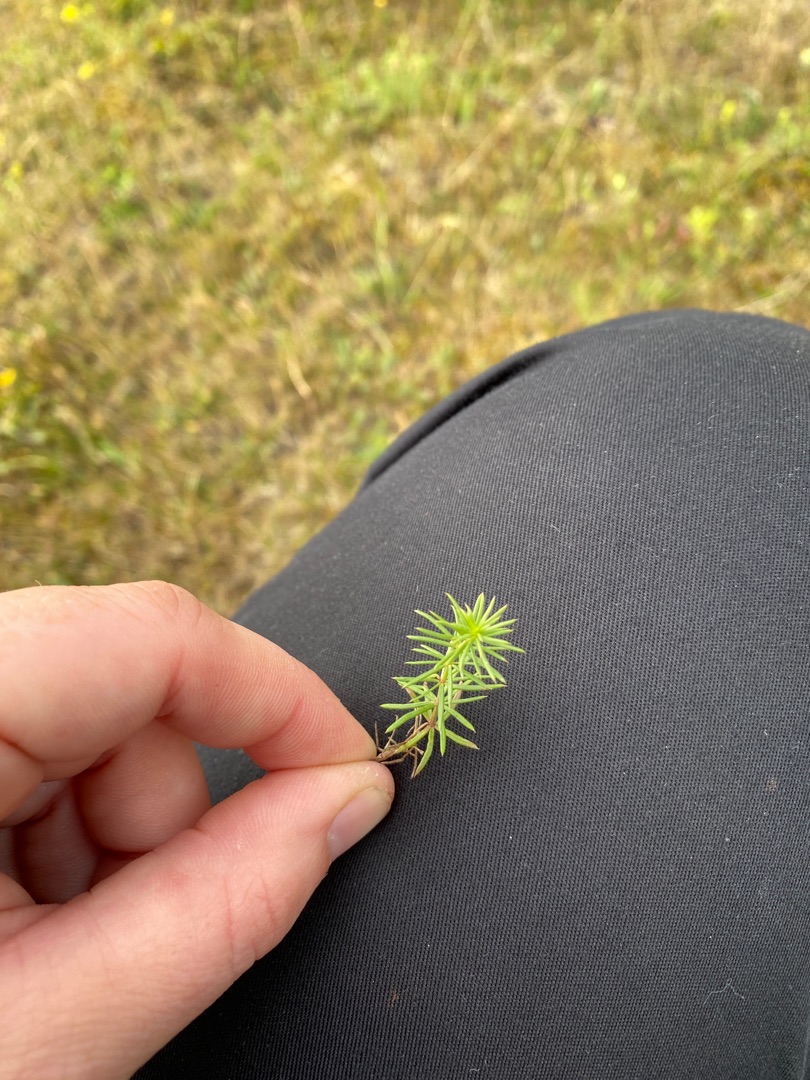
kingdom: Plantae
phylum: Tracheophyta
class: Magnoliopsida
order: Gentianales
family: Rubiaceae
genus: Galium
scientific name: Galium verum
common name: Gul snerre
